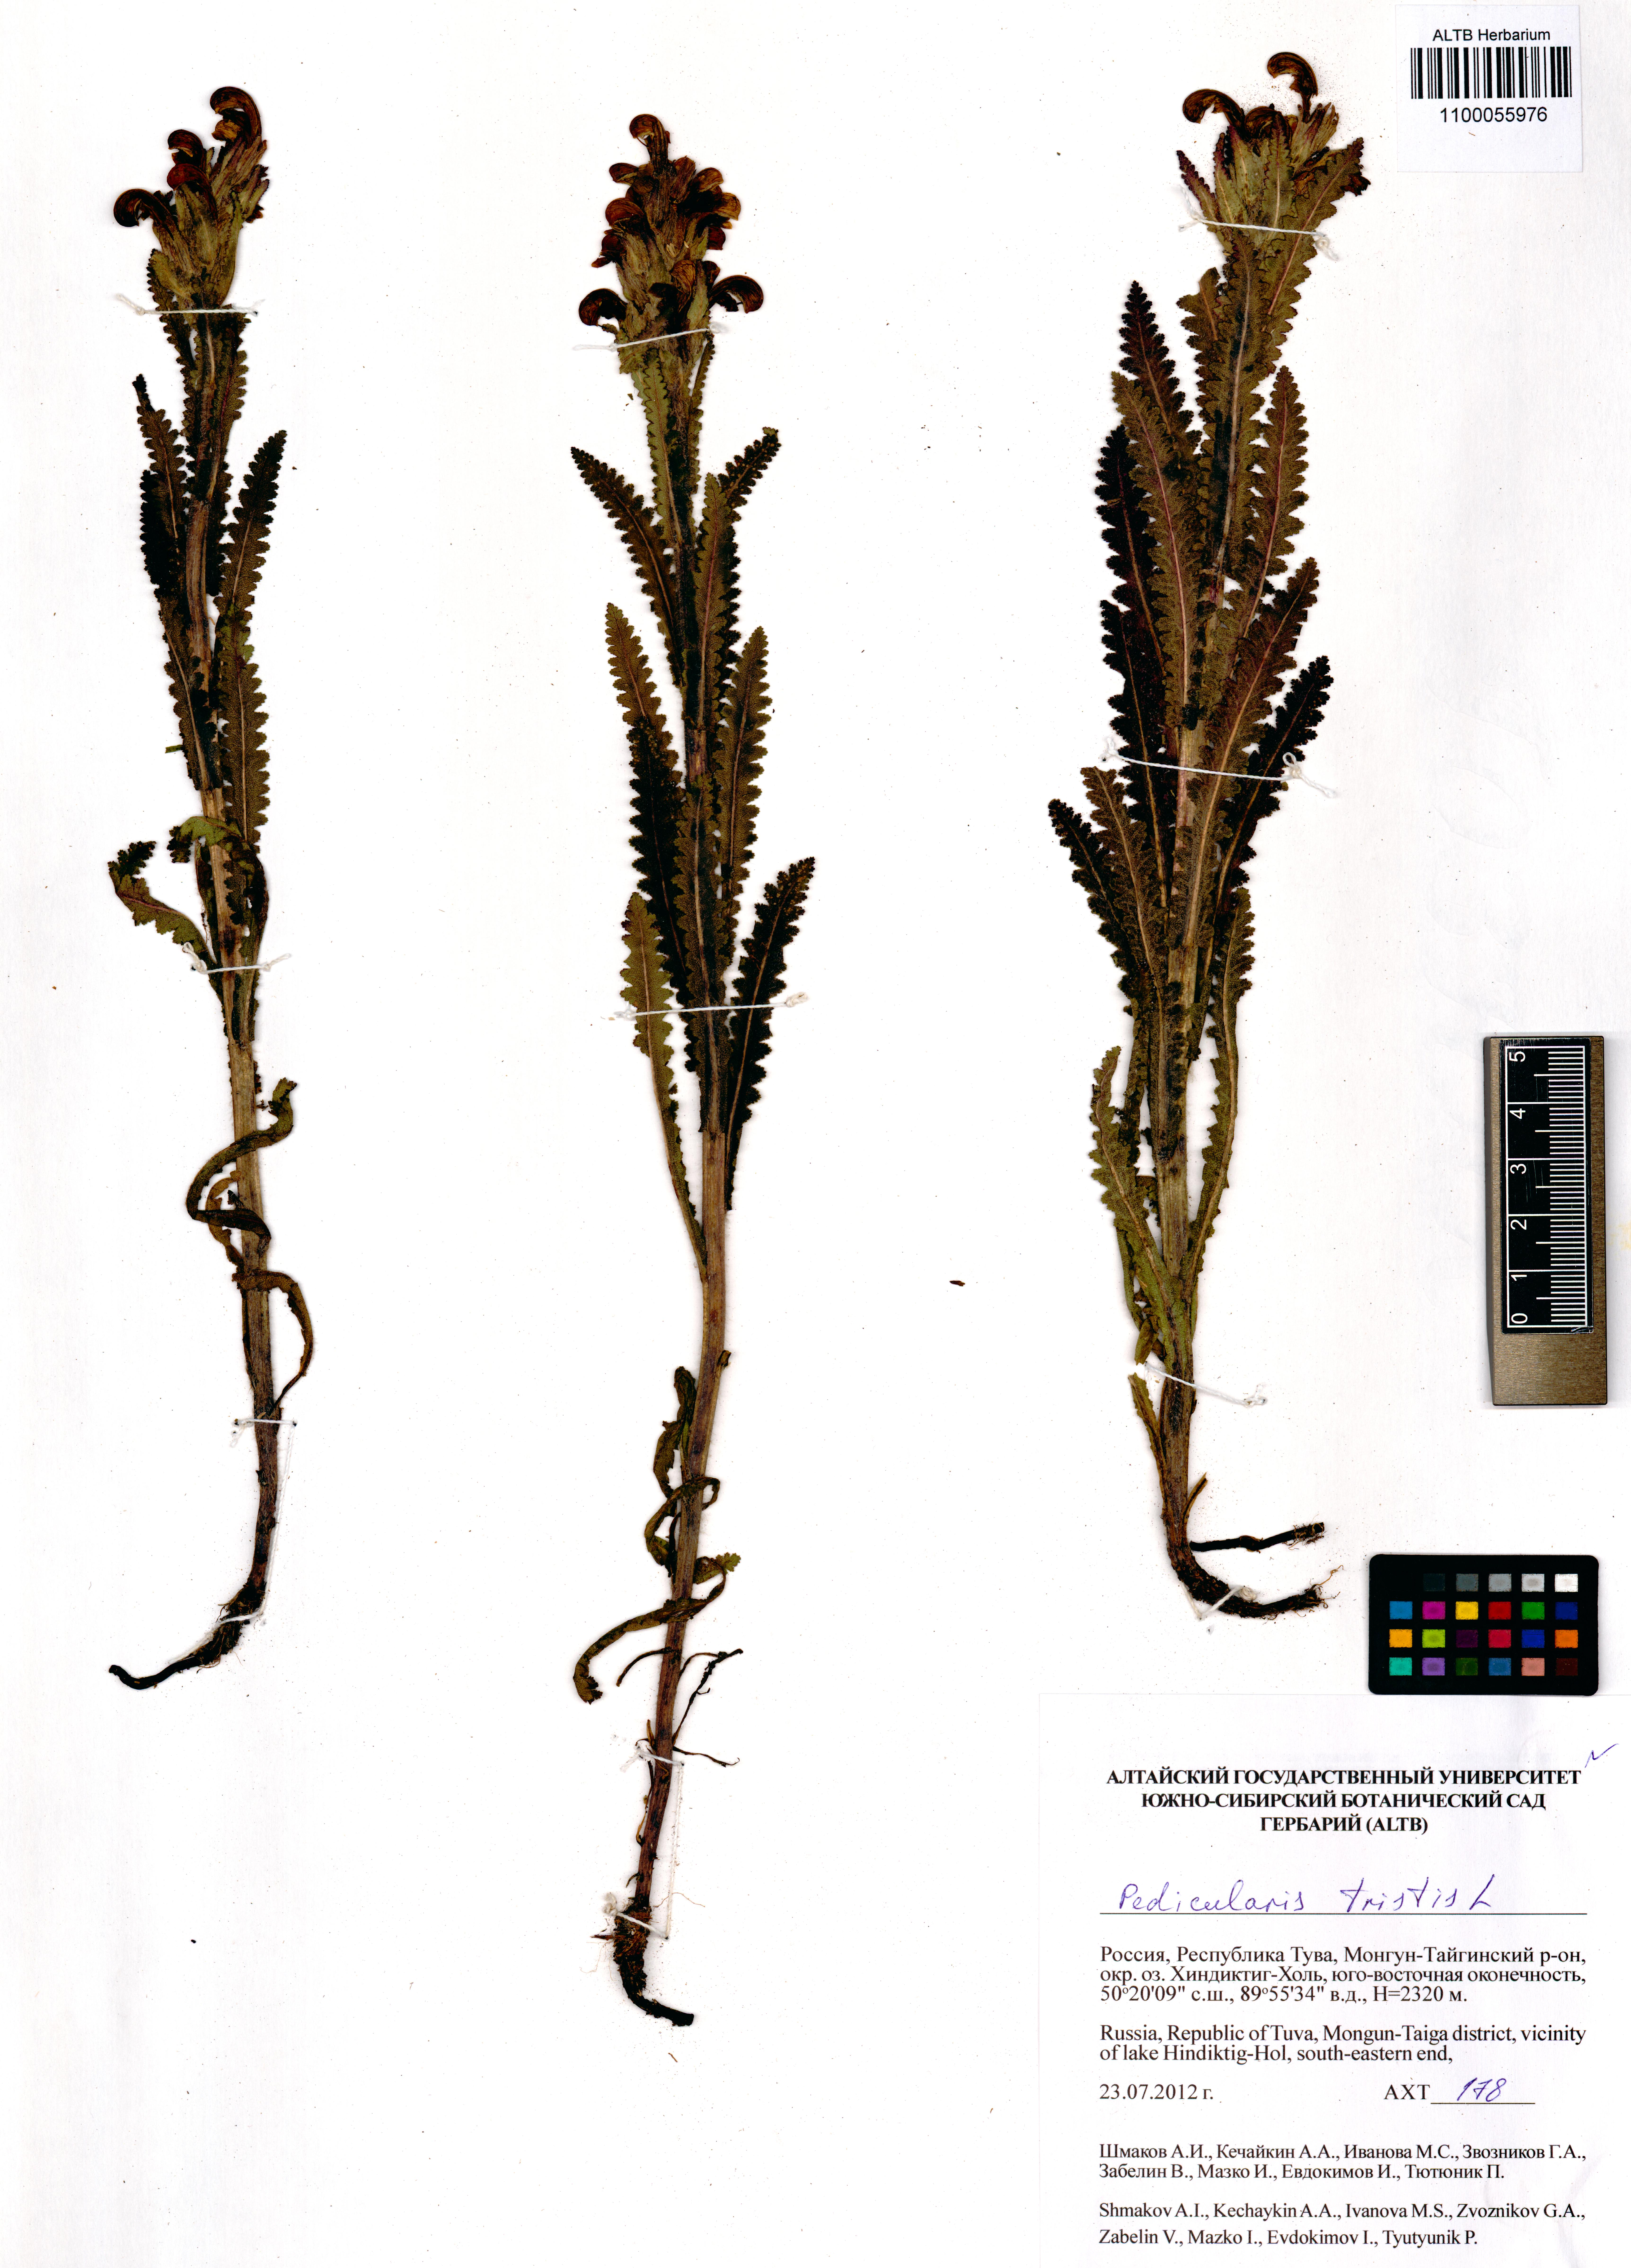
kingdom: Plantae
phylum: Tracheophyta
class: Magnoliopsida
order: Lamiales
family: Orobanchaceae
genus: Pedicularis
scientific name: Pedicularis tristis
